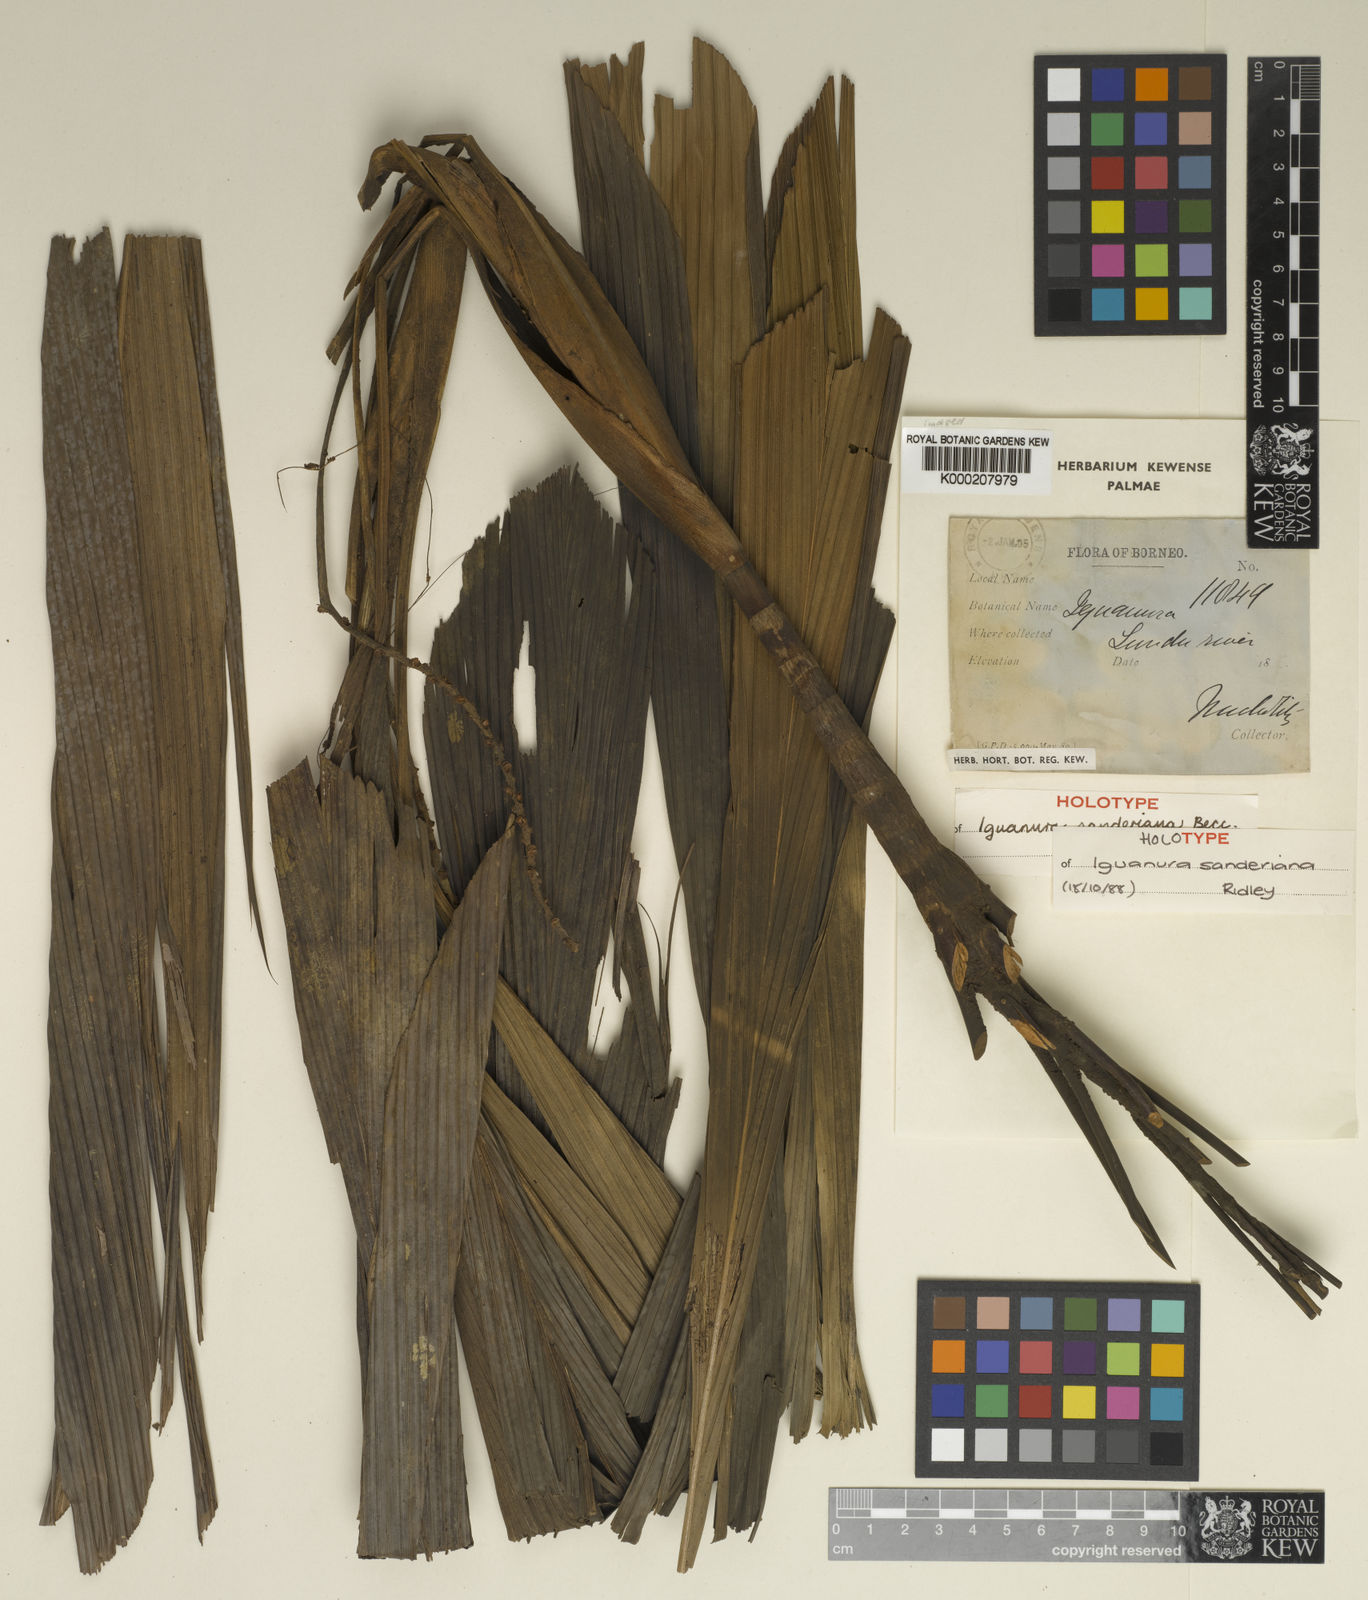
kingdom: Plantae
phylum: Tracheophyta
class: Liliopsida
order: Arecales
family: Arecaceae
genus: Iguanura
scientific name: Iguanura sanderiana
